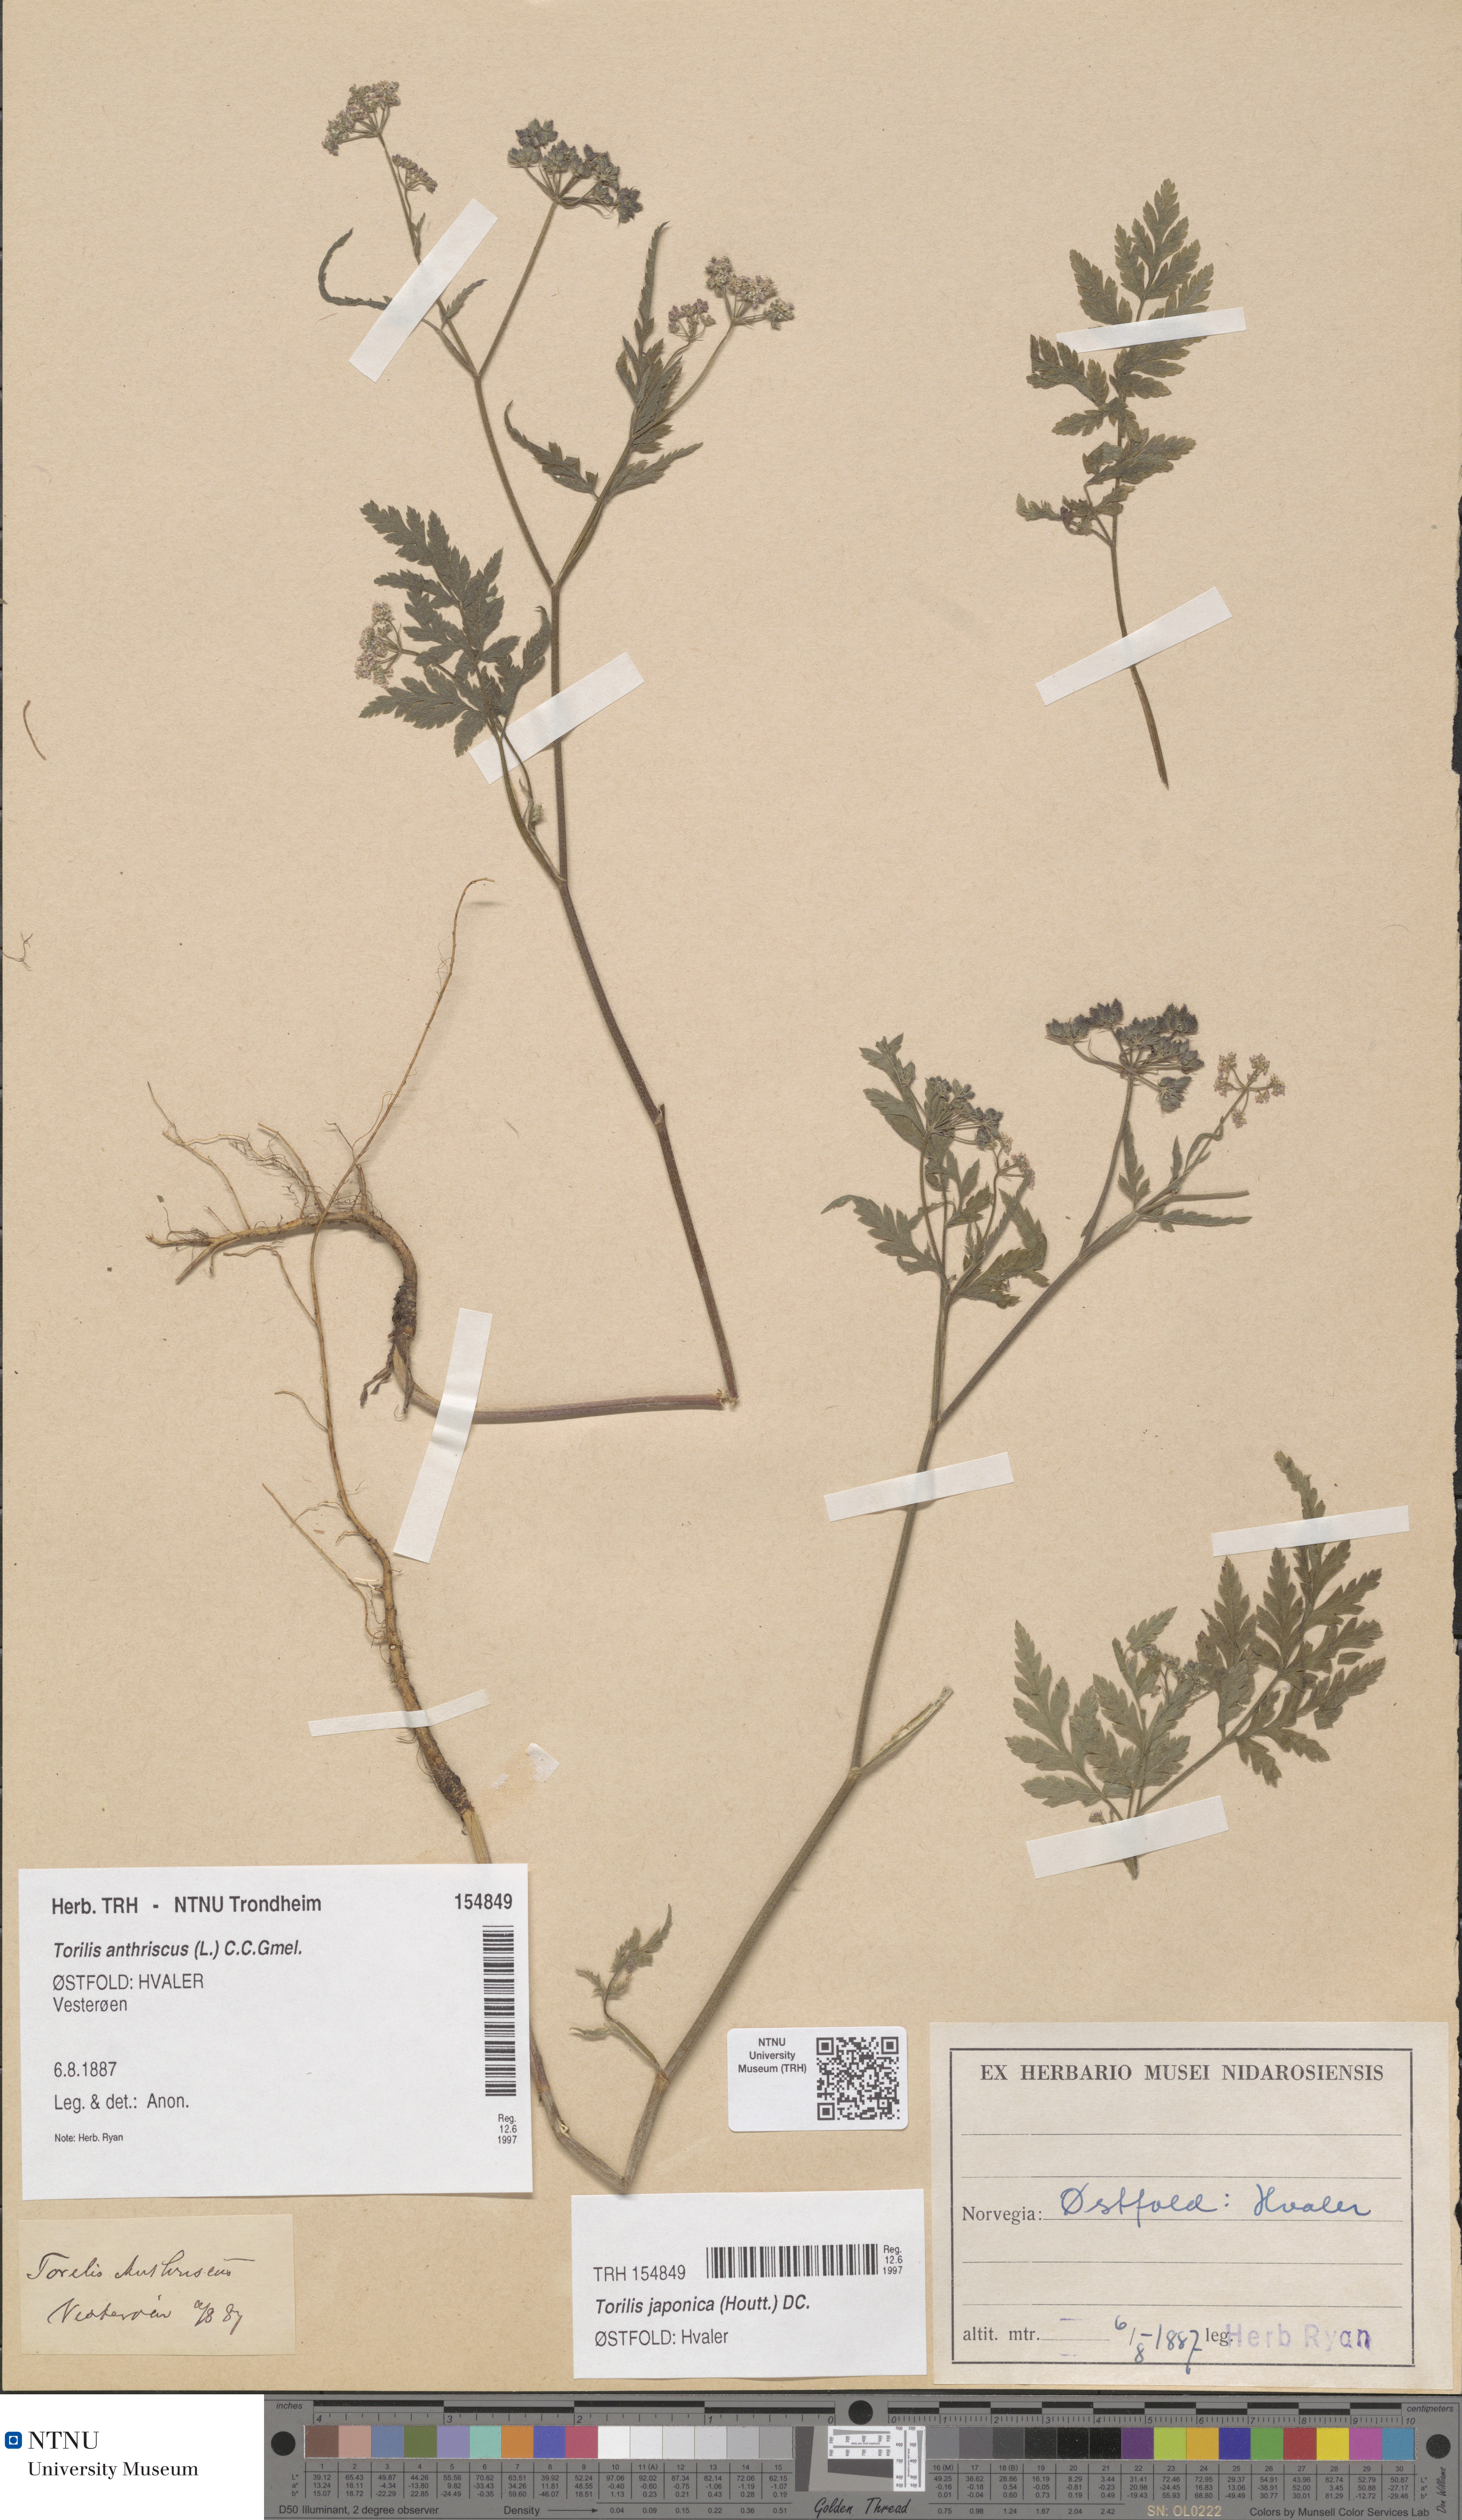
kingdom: Plantae
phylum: Tracheophyta
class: Magnoliopsida
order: Apiales
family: Apiaceae
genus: Torilis
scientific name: Torilis japonica
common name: Upright hedge-parsley
